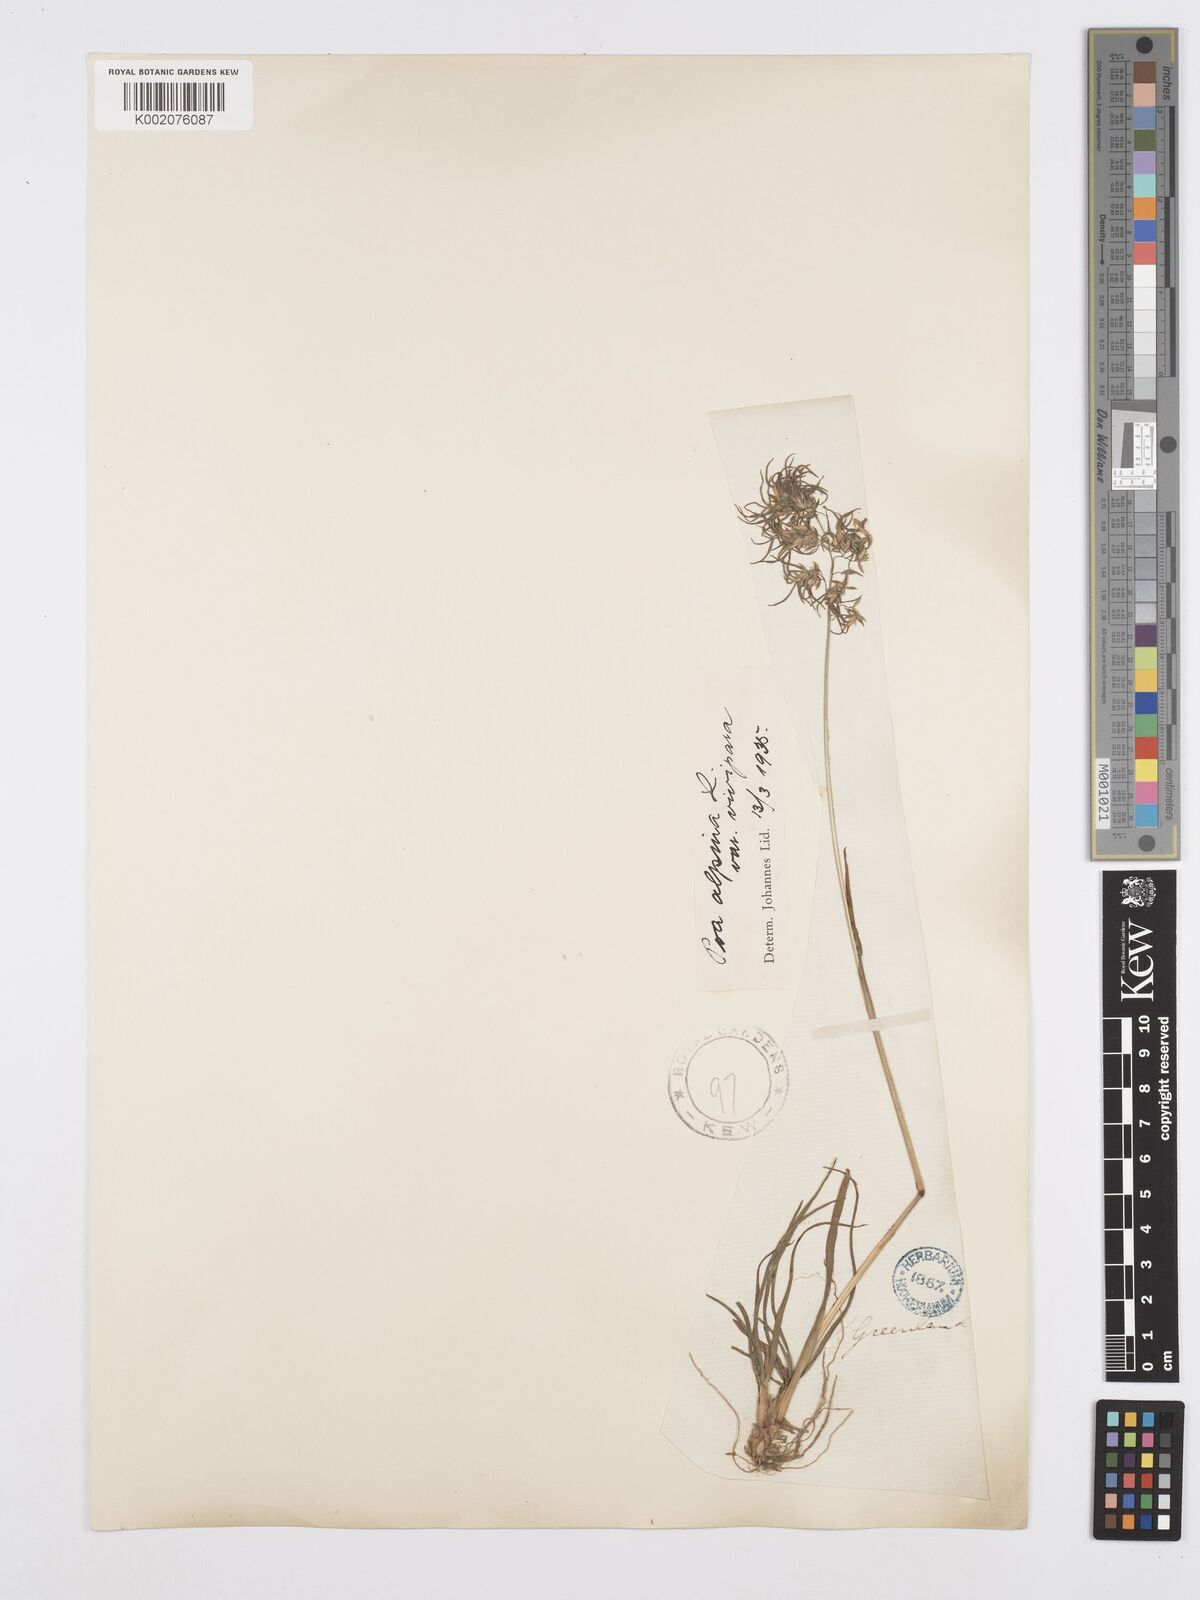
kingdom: Plantae
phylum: Tracheophyta
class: Liliopsida
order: Poales
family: Poaceae
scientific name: Poaceae
